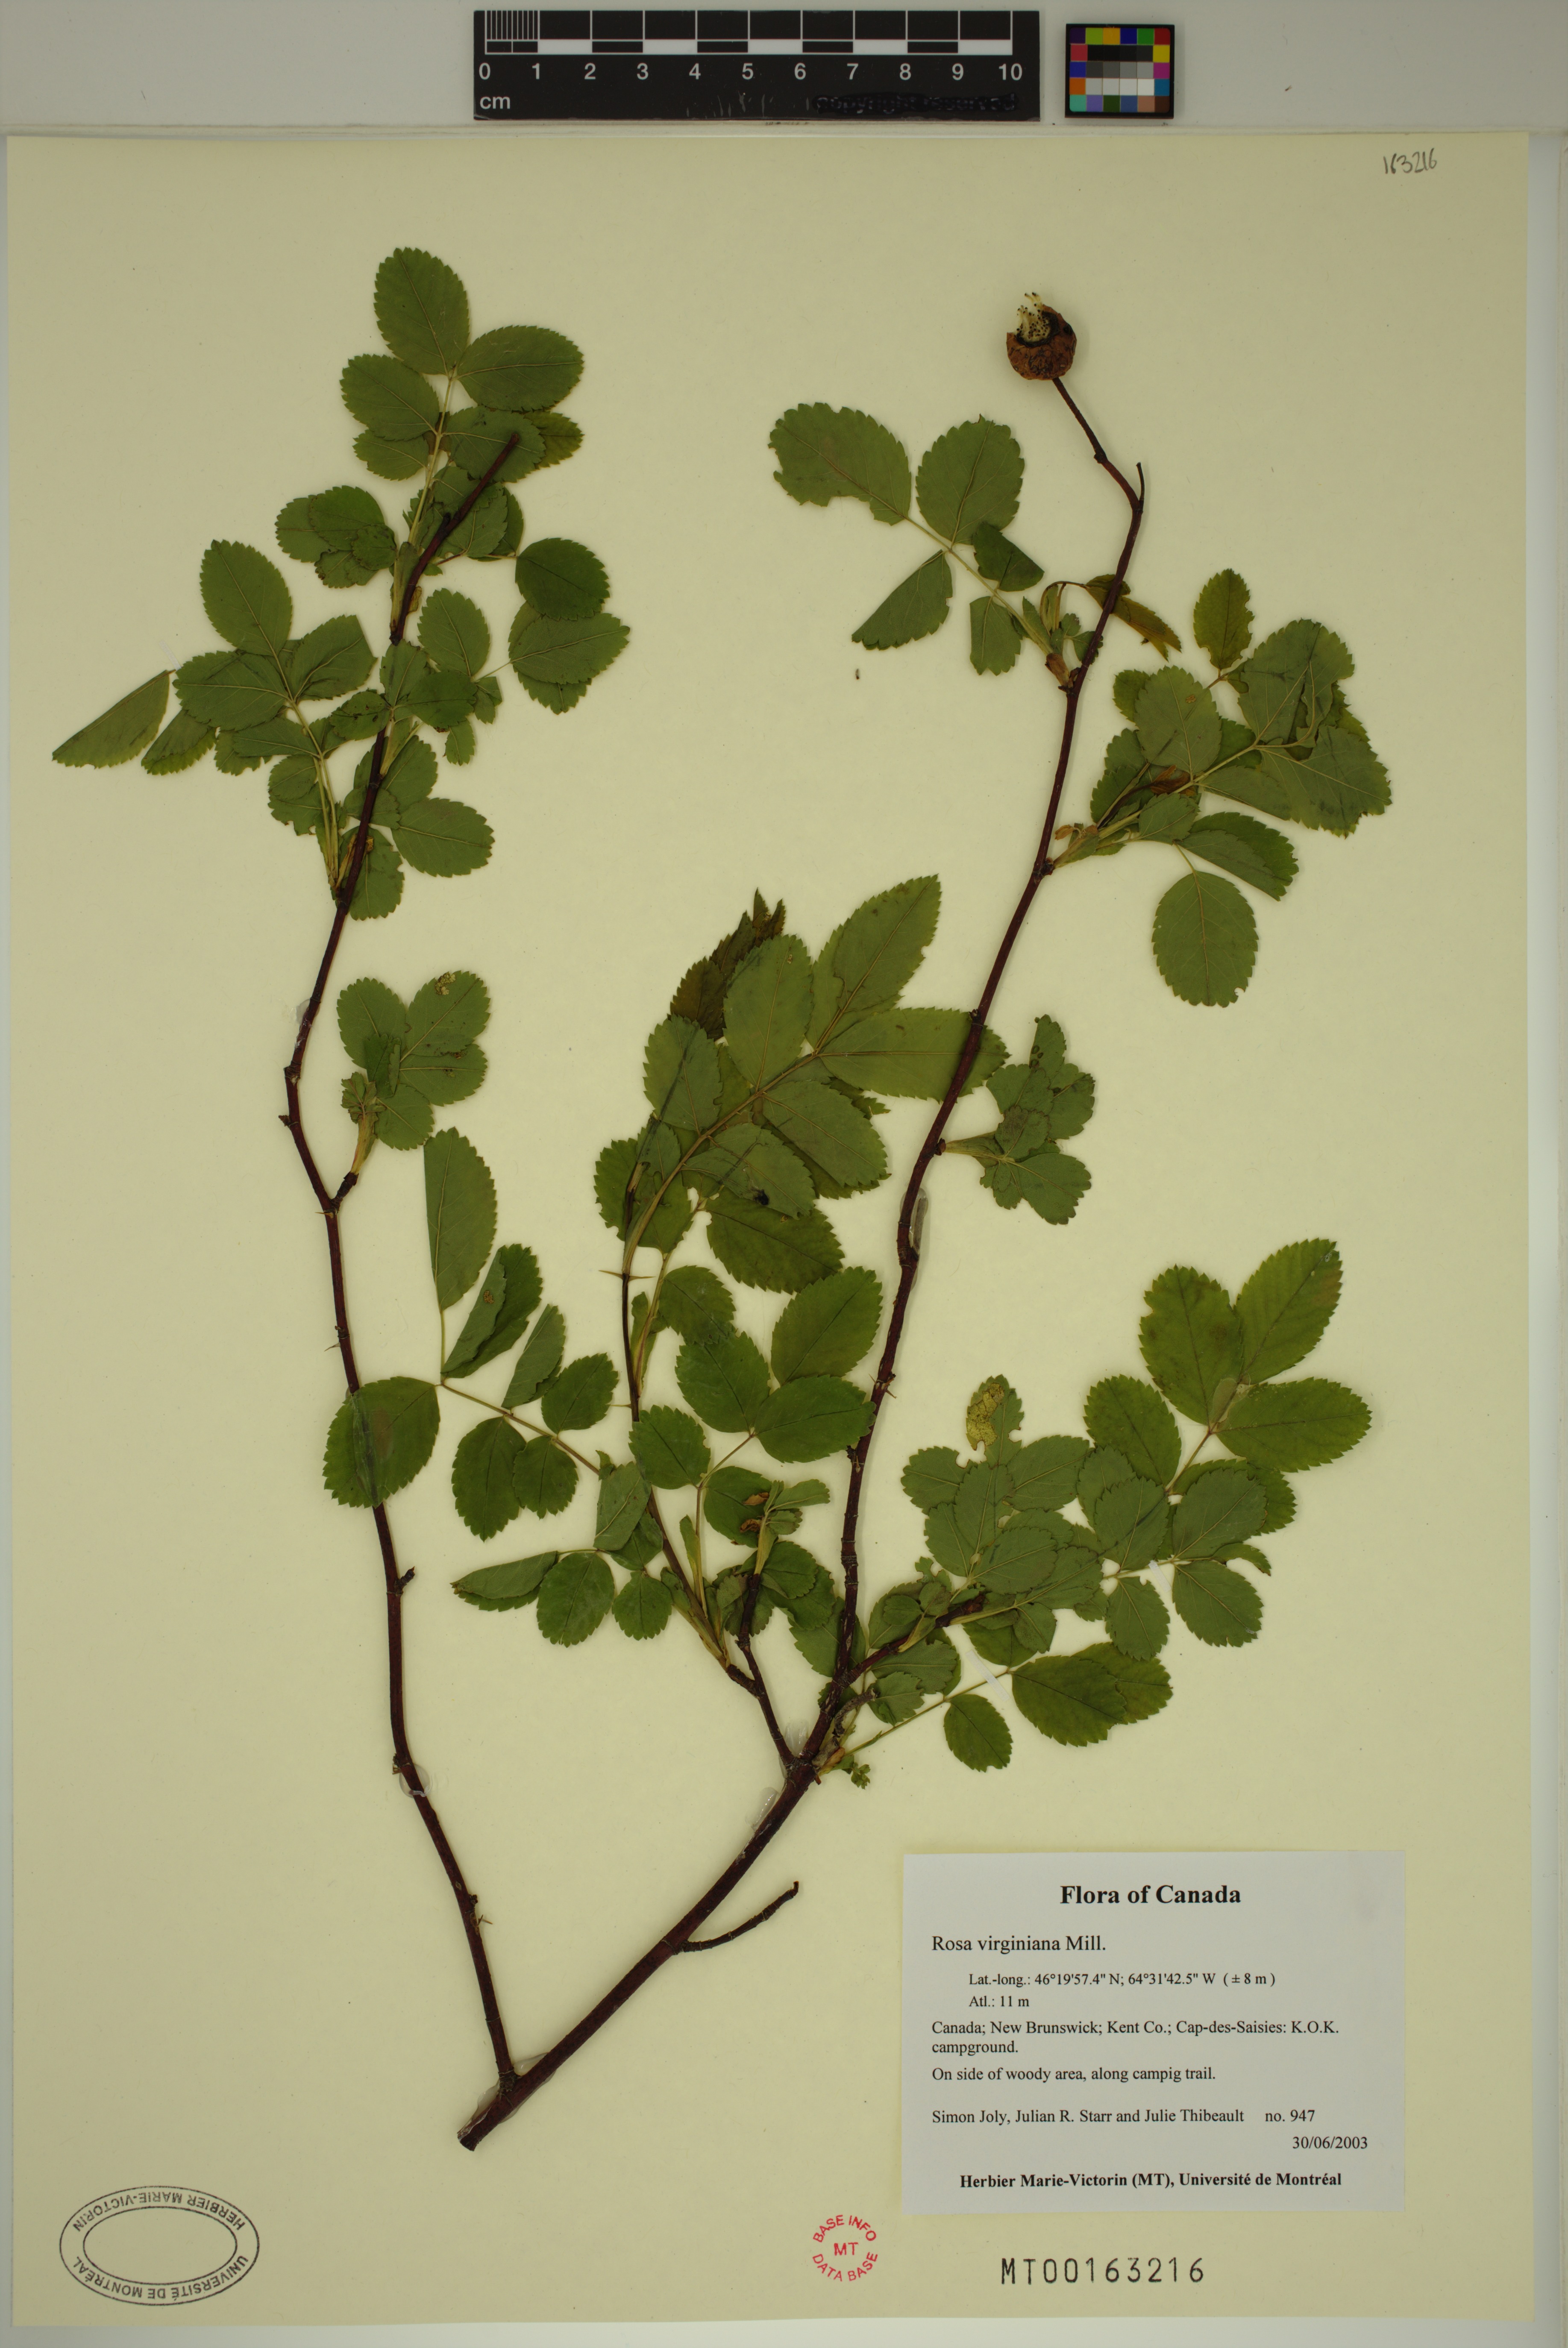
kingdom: Plantae
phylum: Tracheophyta
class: Magnoliopsida
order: Rosales
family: Rosaceae
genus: Rosa
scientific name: Rosa carolina
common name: Pasture rose
